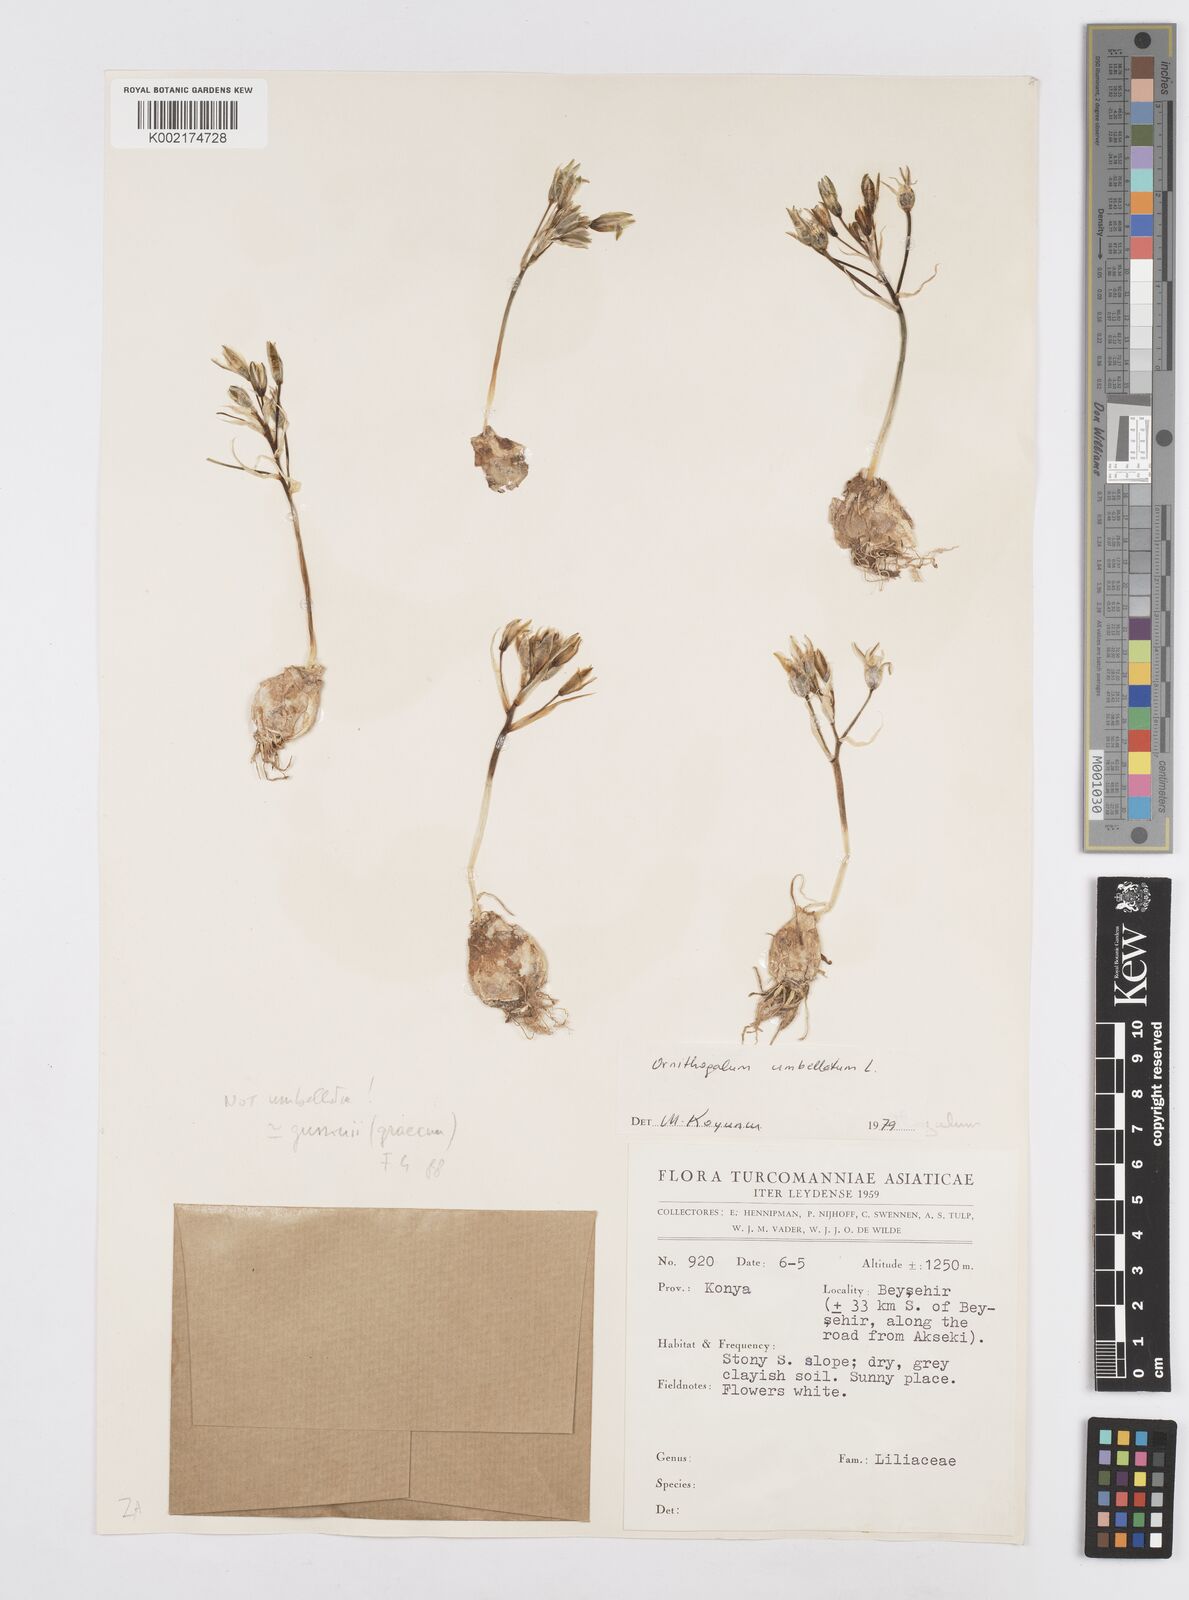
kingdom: Plantae
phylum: Tracheophyta
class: Liliopsida
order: Asparagales
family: Asparagaceae
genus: Ornithogalum
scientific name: Ornithogalum
